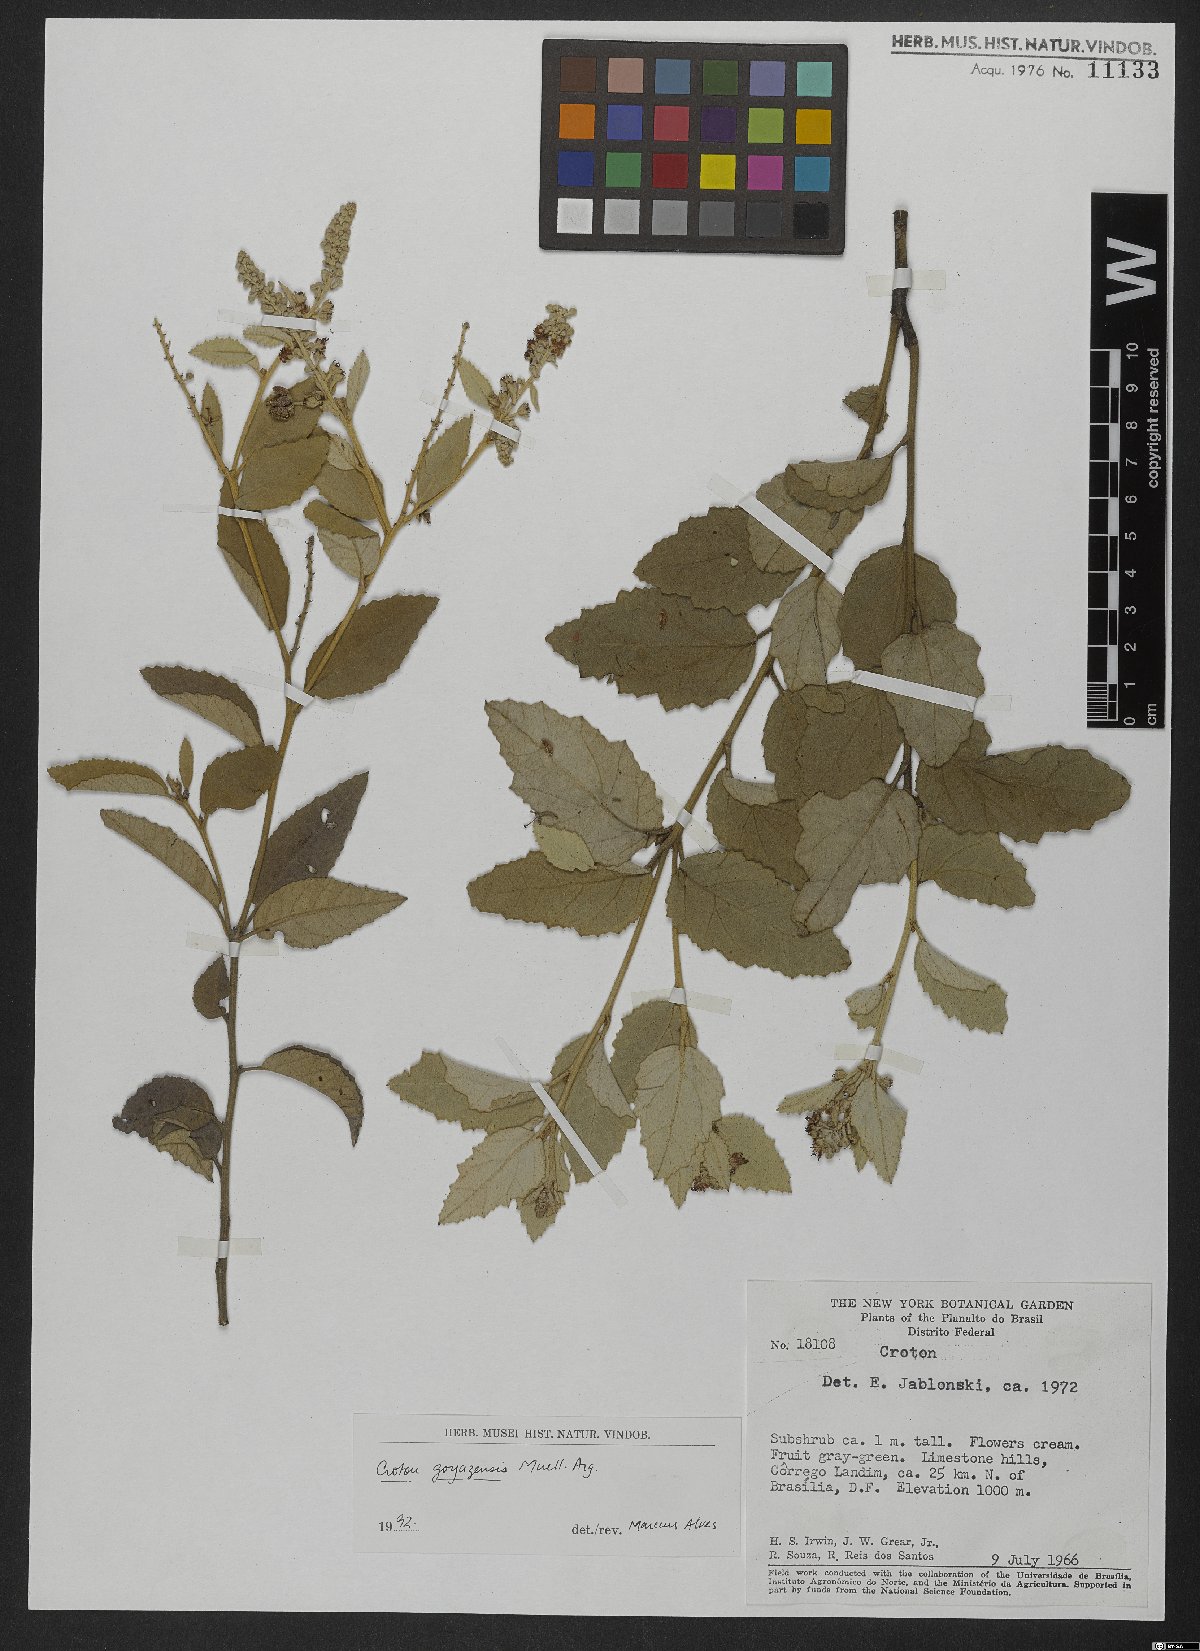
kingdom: Plantae
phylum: Tracheophyta
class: Magnoliopsida
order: Malpighiales
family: Euphorbiaceae
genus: Croton
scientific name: Croton goyazensis
